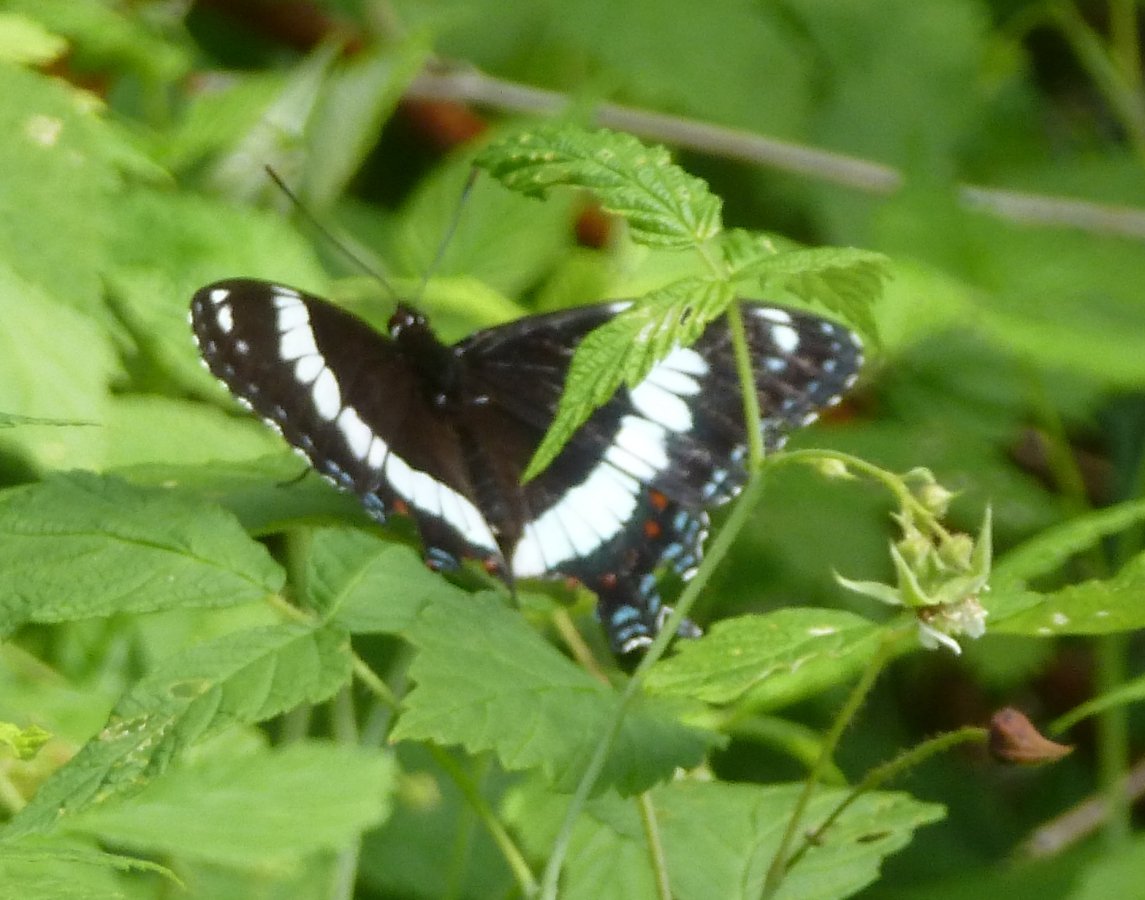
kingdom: Animalia
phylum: Arthropoda
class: Insecta
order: Lepidoptera
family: Nymphalidae
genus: Limenitis
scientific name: Limenitis arthemis
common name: Red-spotted Admiral
